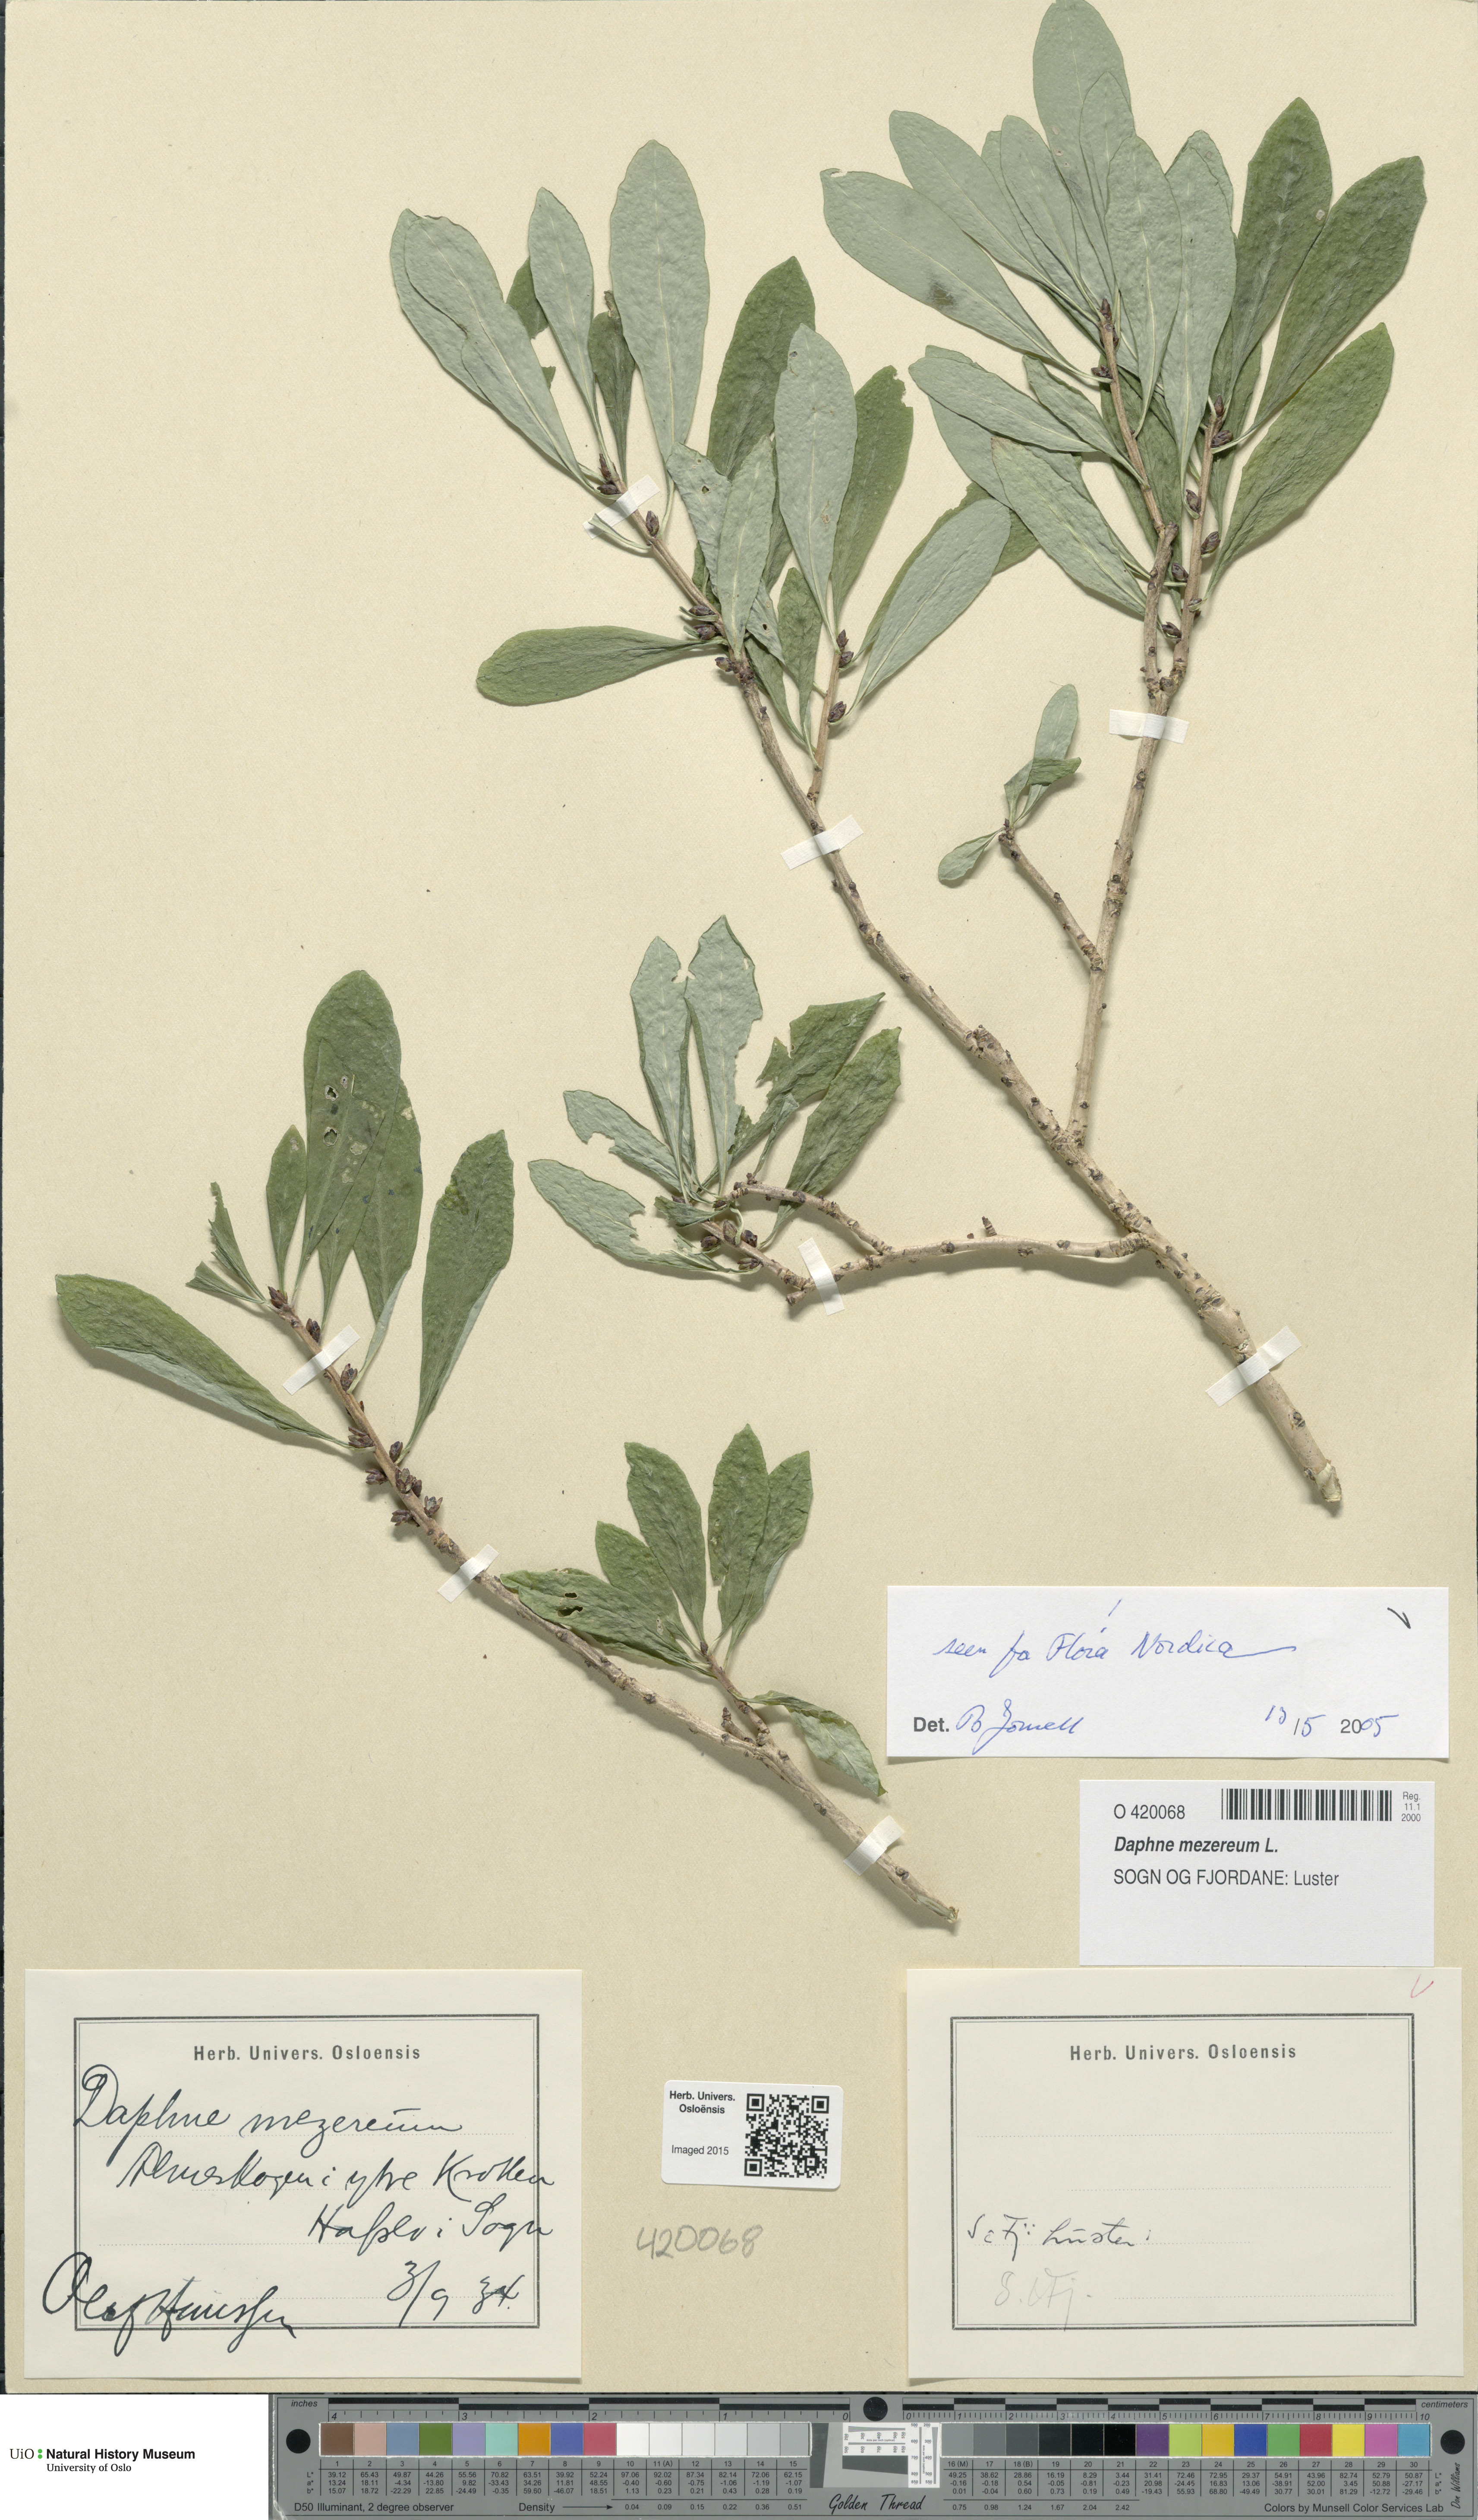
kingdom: Plantae
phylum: Tracheophyta
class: Magnoliopsida
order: Malvales
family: Thymelaeaceae
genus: Daphne
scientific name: Daphne mezereum
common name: Mezereon
